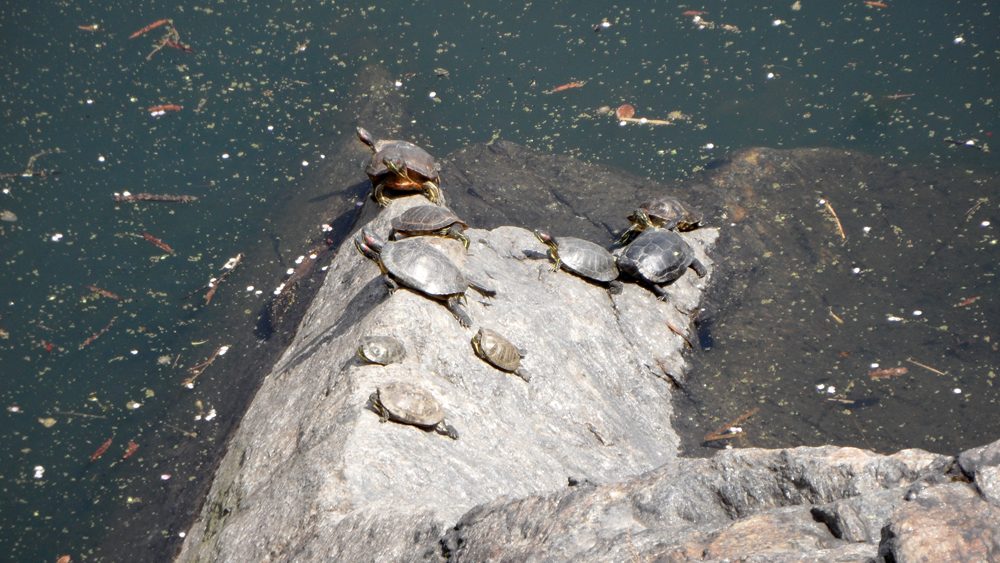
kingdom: Animalia
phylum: Chordata
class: Testudines
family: Emydidae
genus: Trachemys
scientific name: Trachemys scripta
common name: Slider
